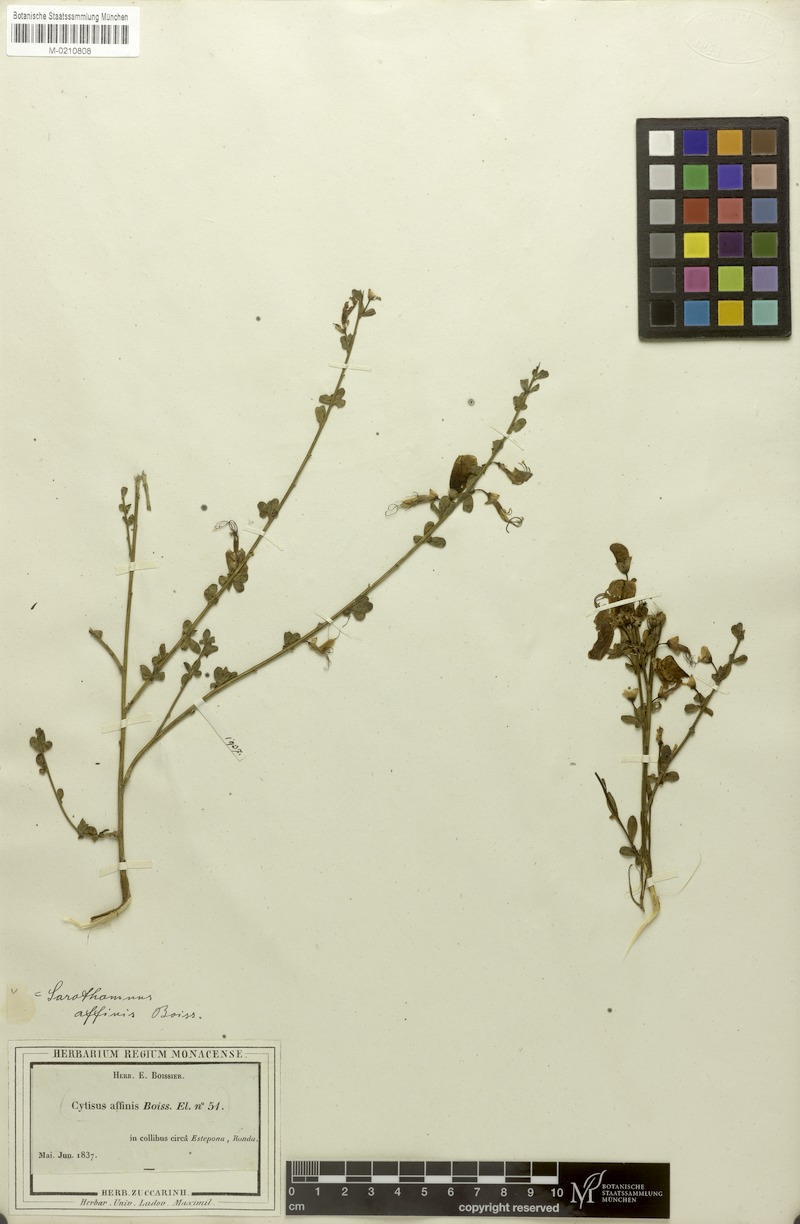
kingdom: Plantae
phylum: Tracheophyta
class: Magnoliopsida
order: Fabales
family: Fabaceae
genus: Cytisus
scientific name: Cytisus grandiflorus
